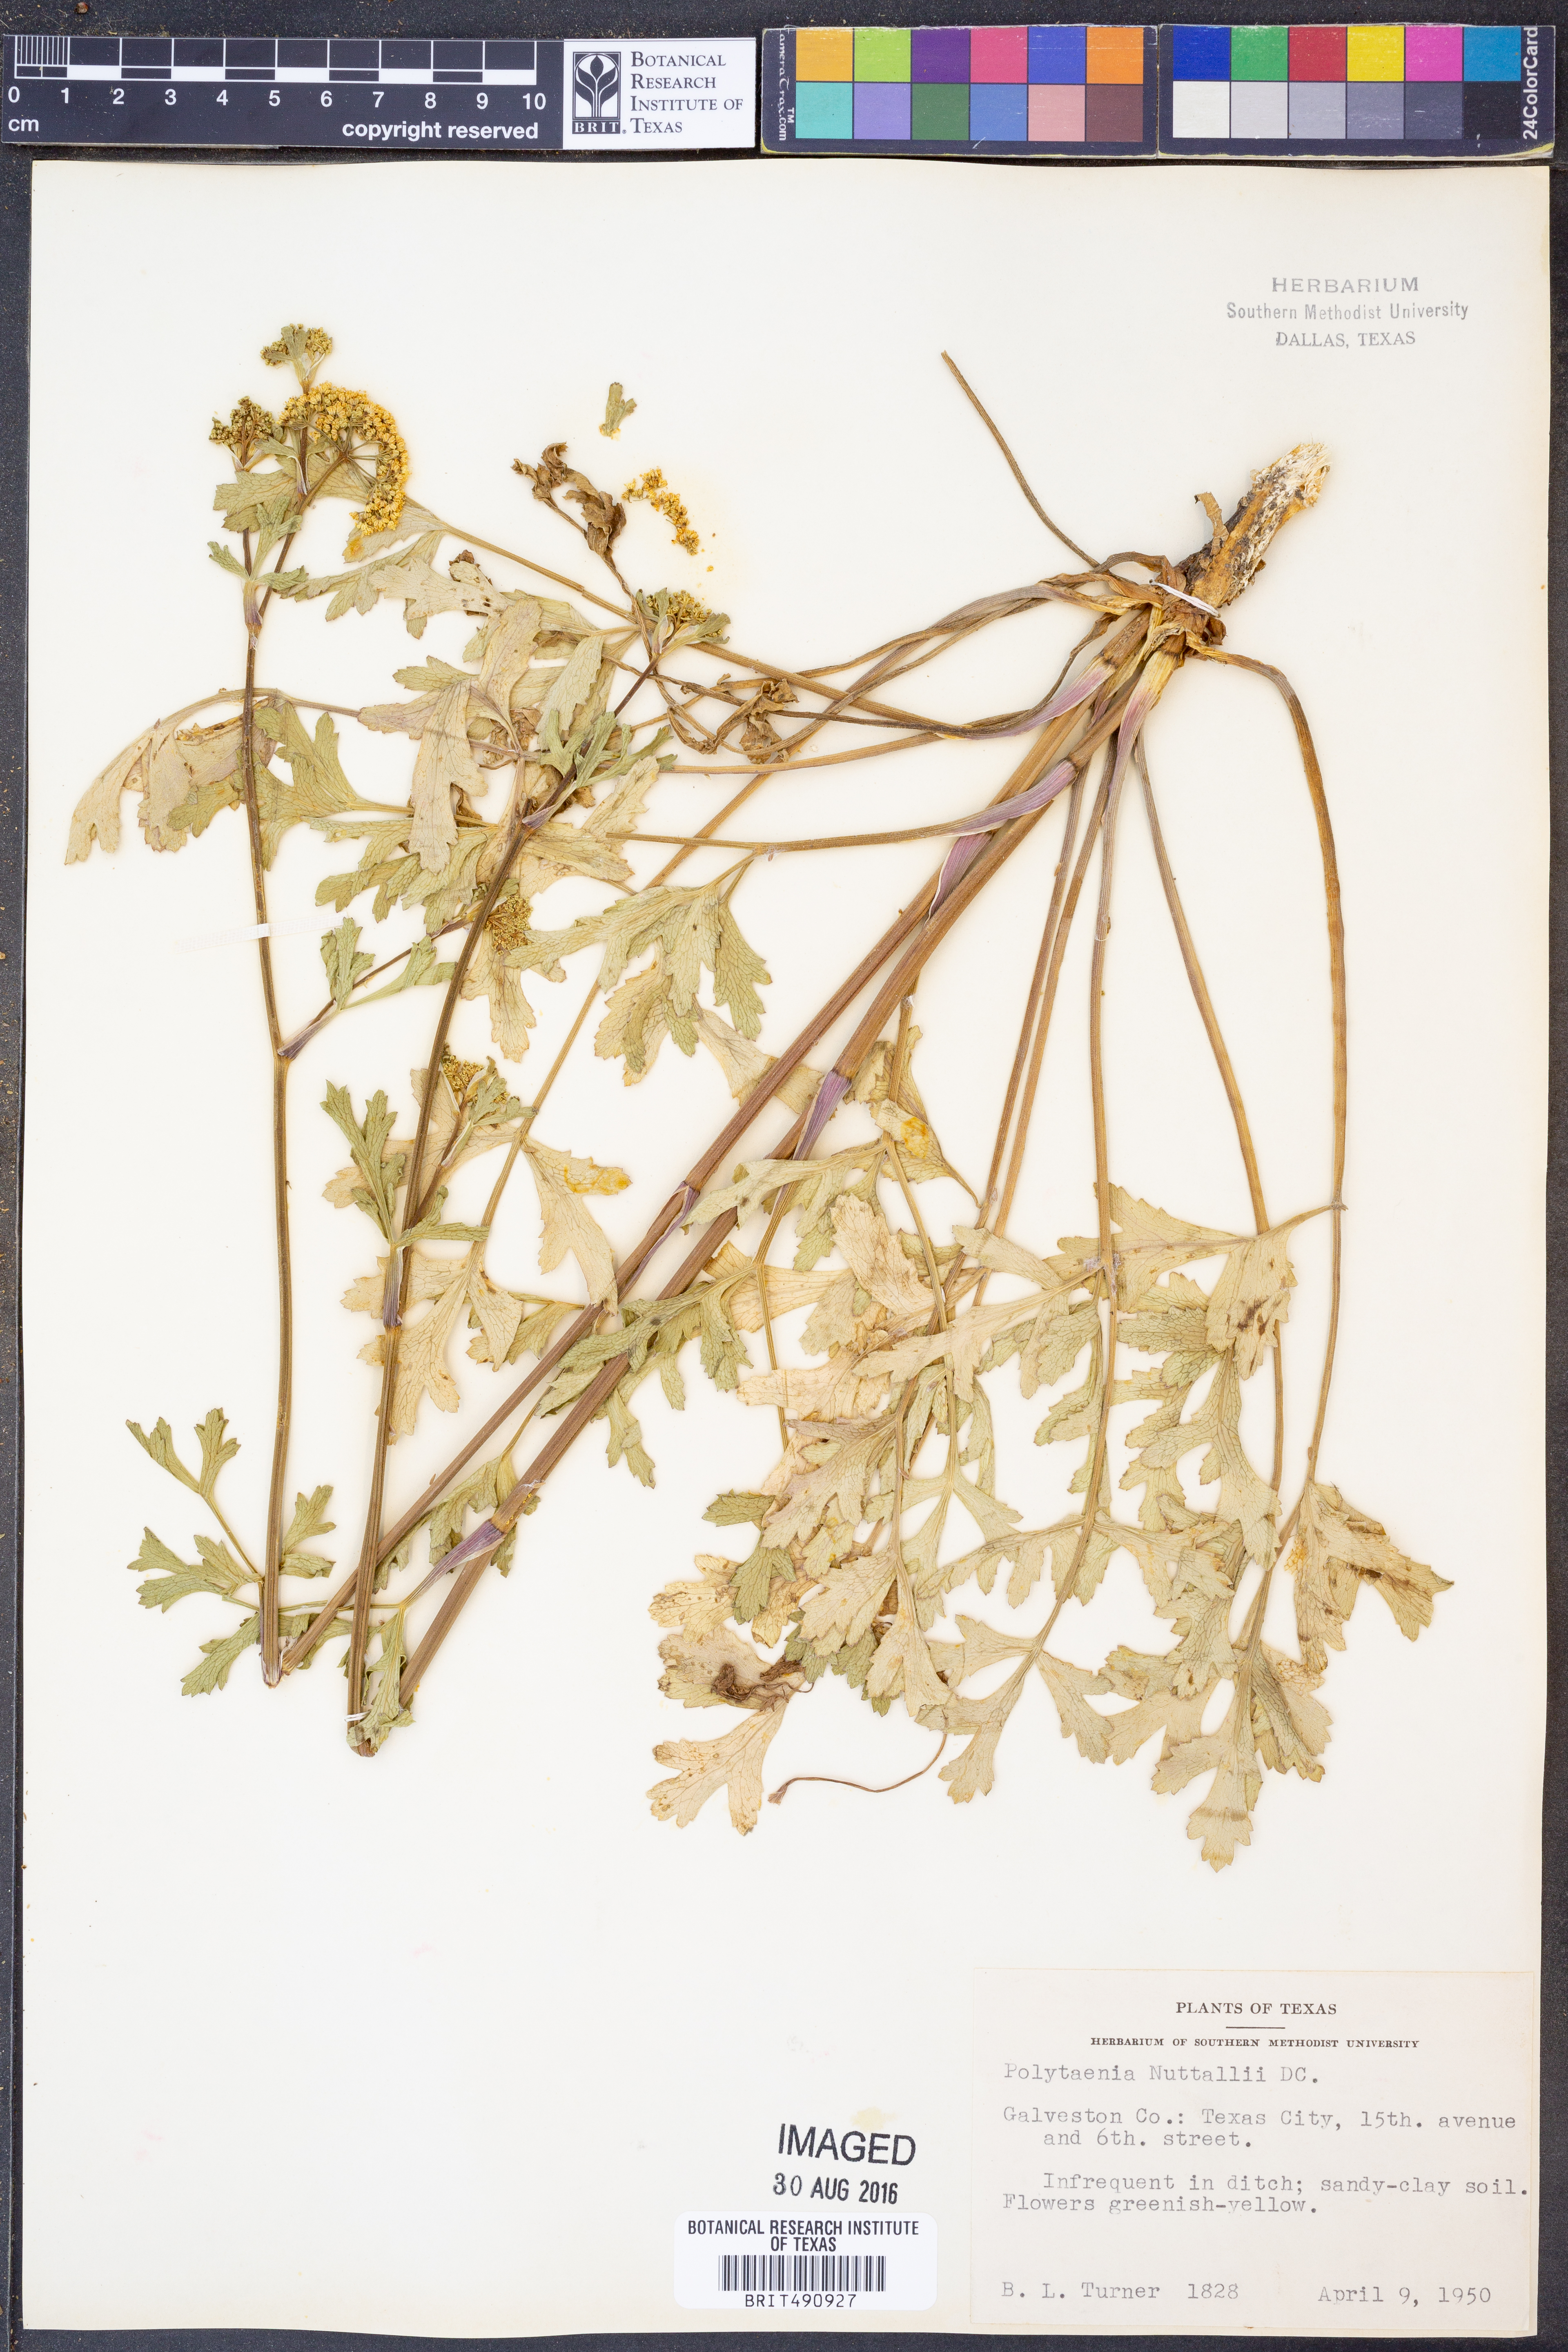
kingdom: Plantae
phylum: Tracheophyta
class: Magnoliopsida
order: Apiales
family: Apiaceae
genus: Polytaenia
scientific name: Polytaenia nuttallii
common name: Prairie-parsley
